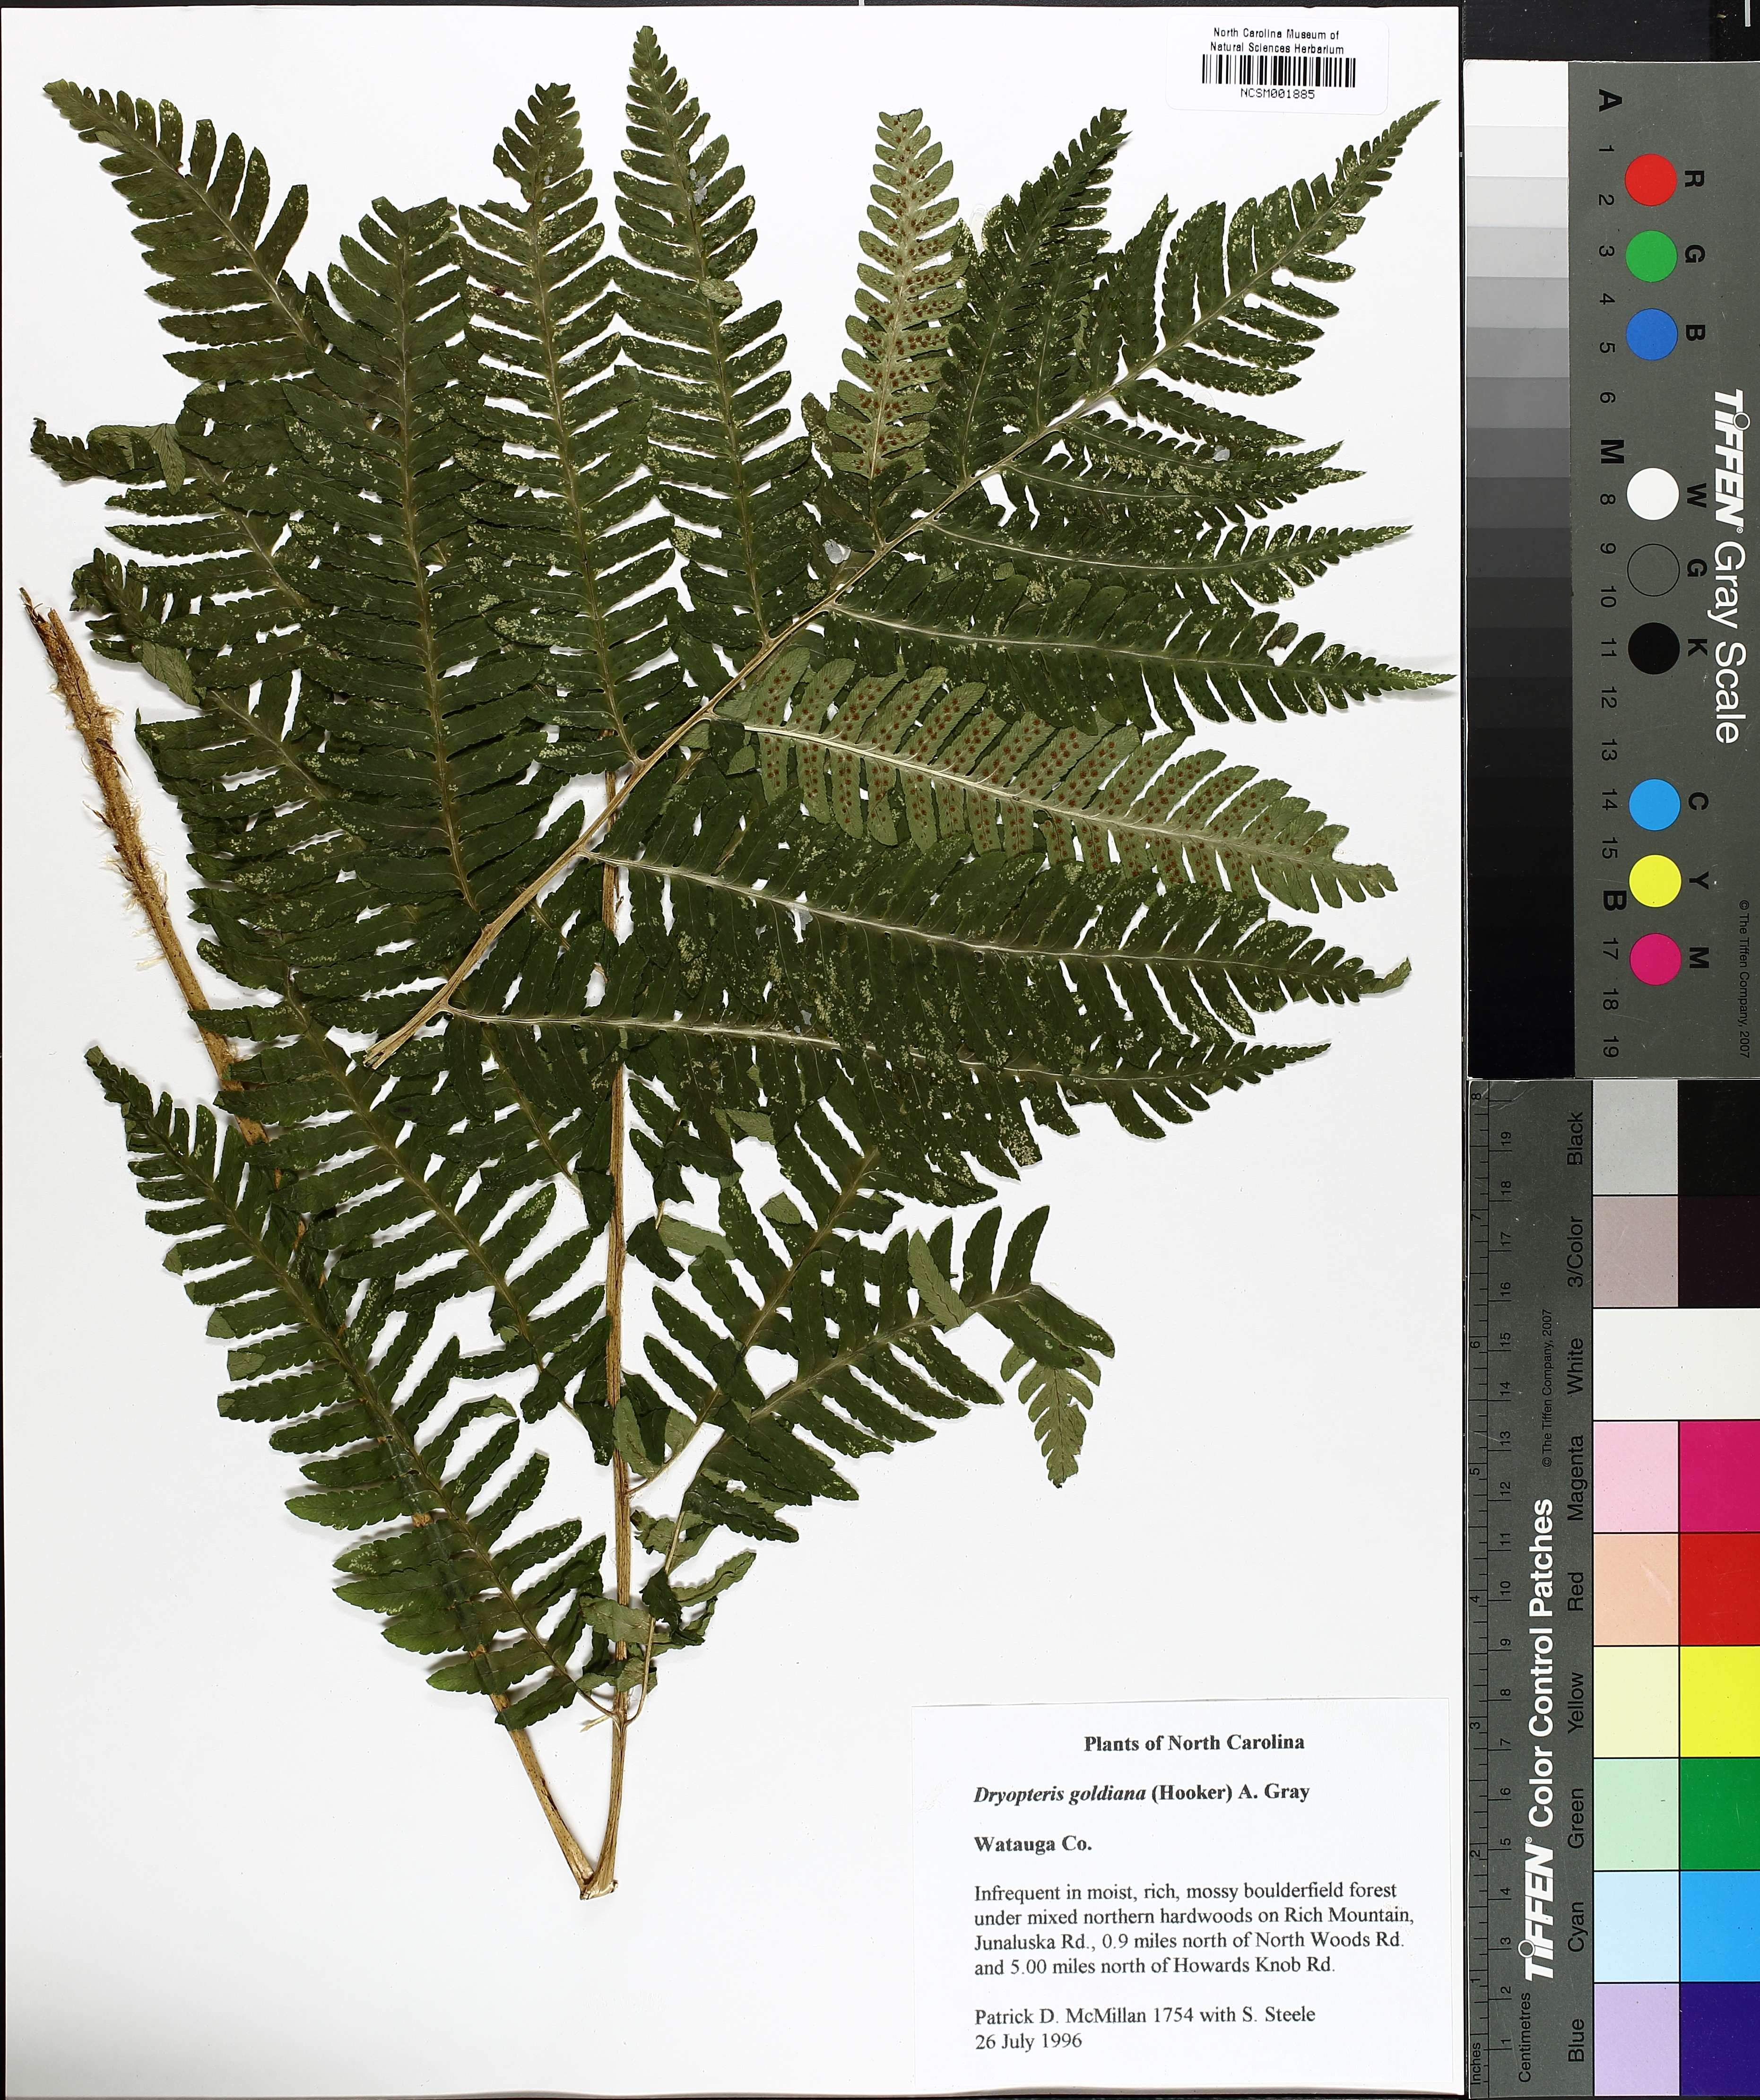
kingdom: Plantae
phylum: Tracheophyta
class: Polypodiopsida
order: Polypodiales
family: Dryopteridaceae
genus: Dryopteris
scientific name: Dryopteris goeldiana
